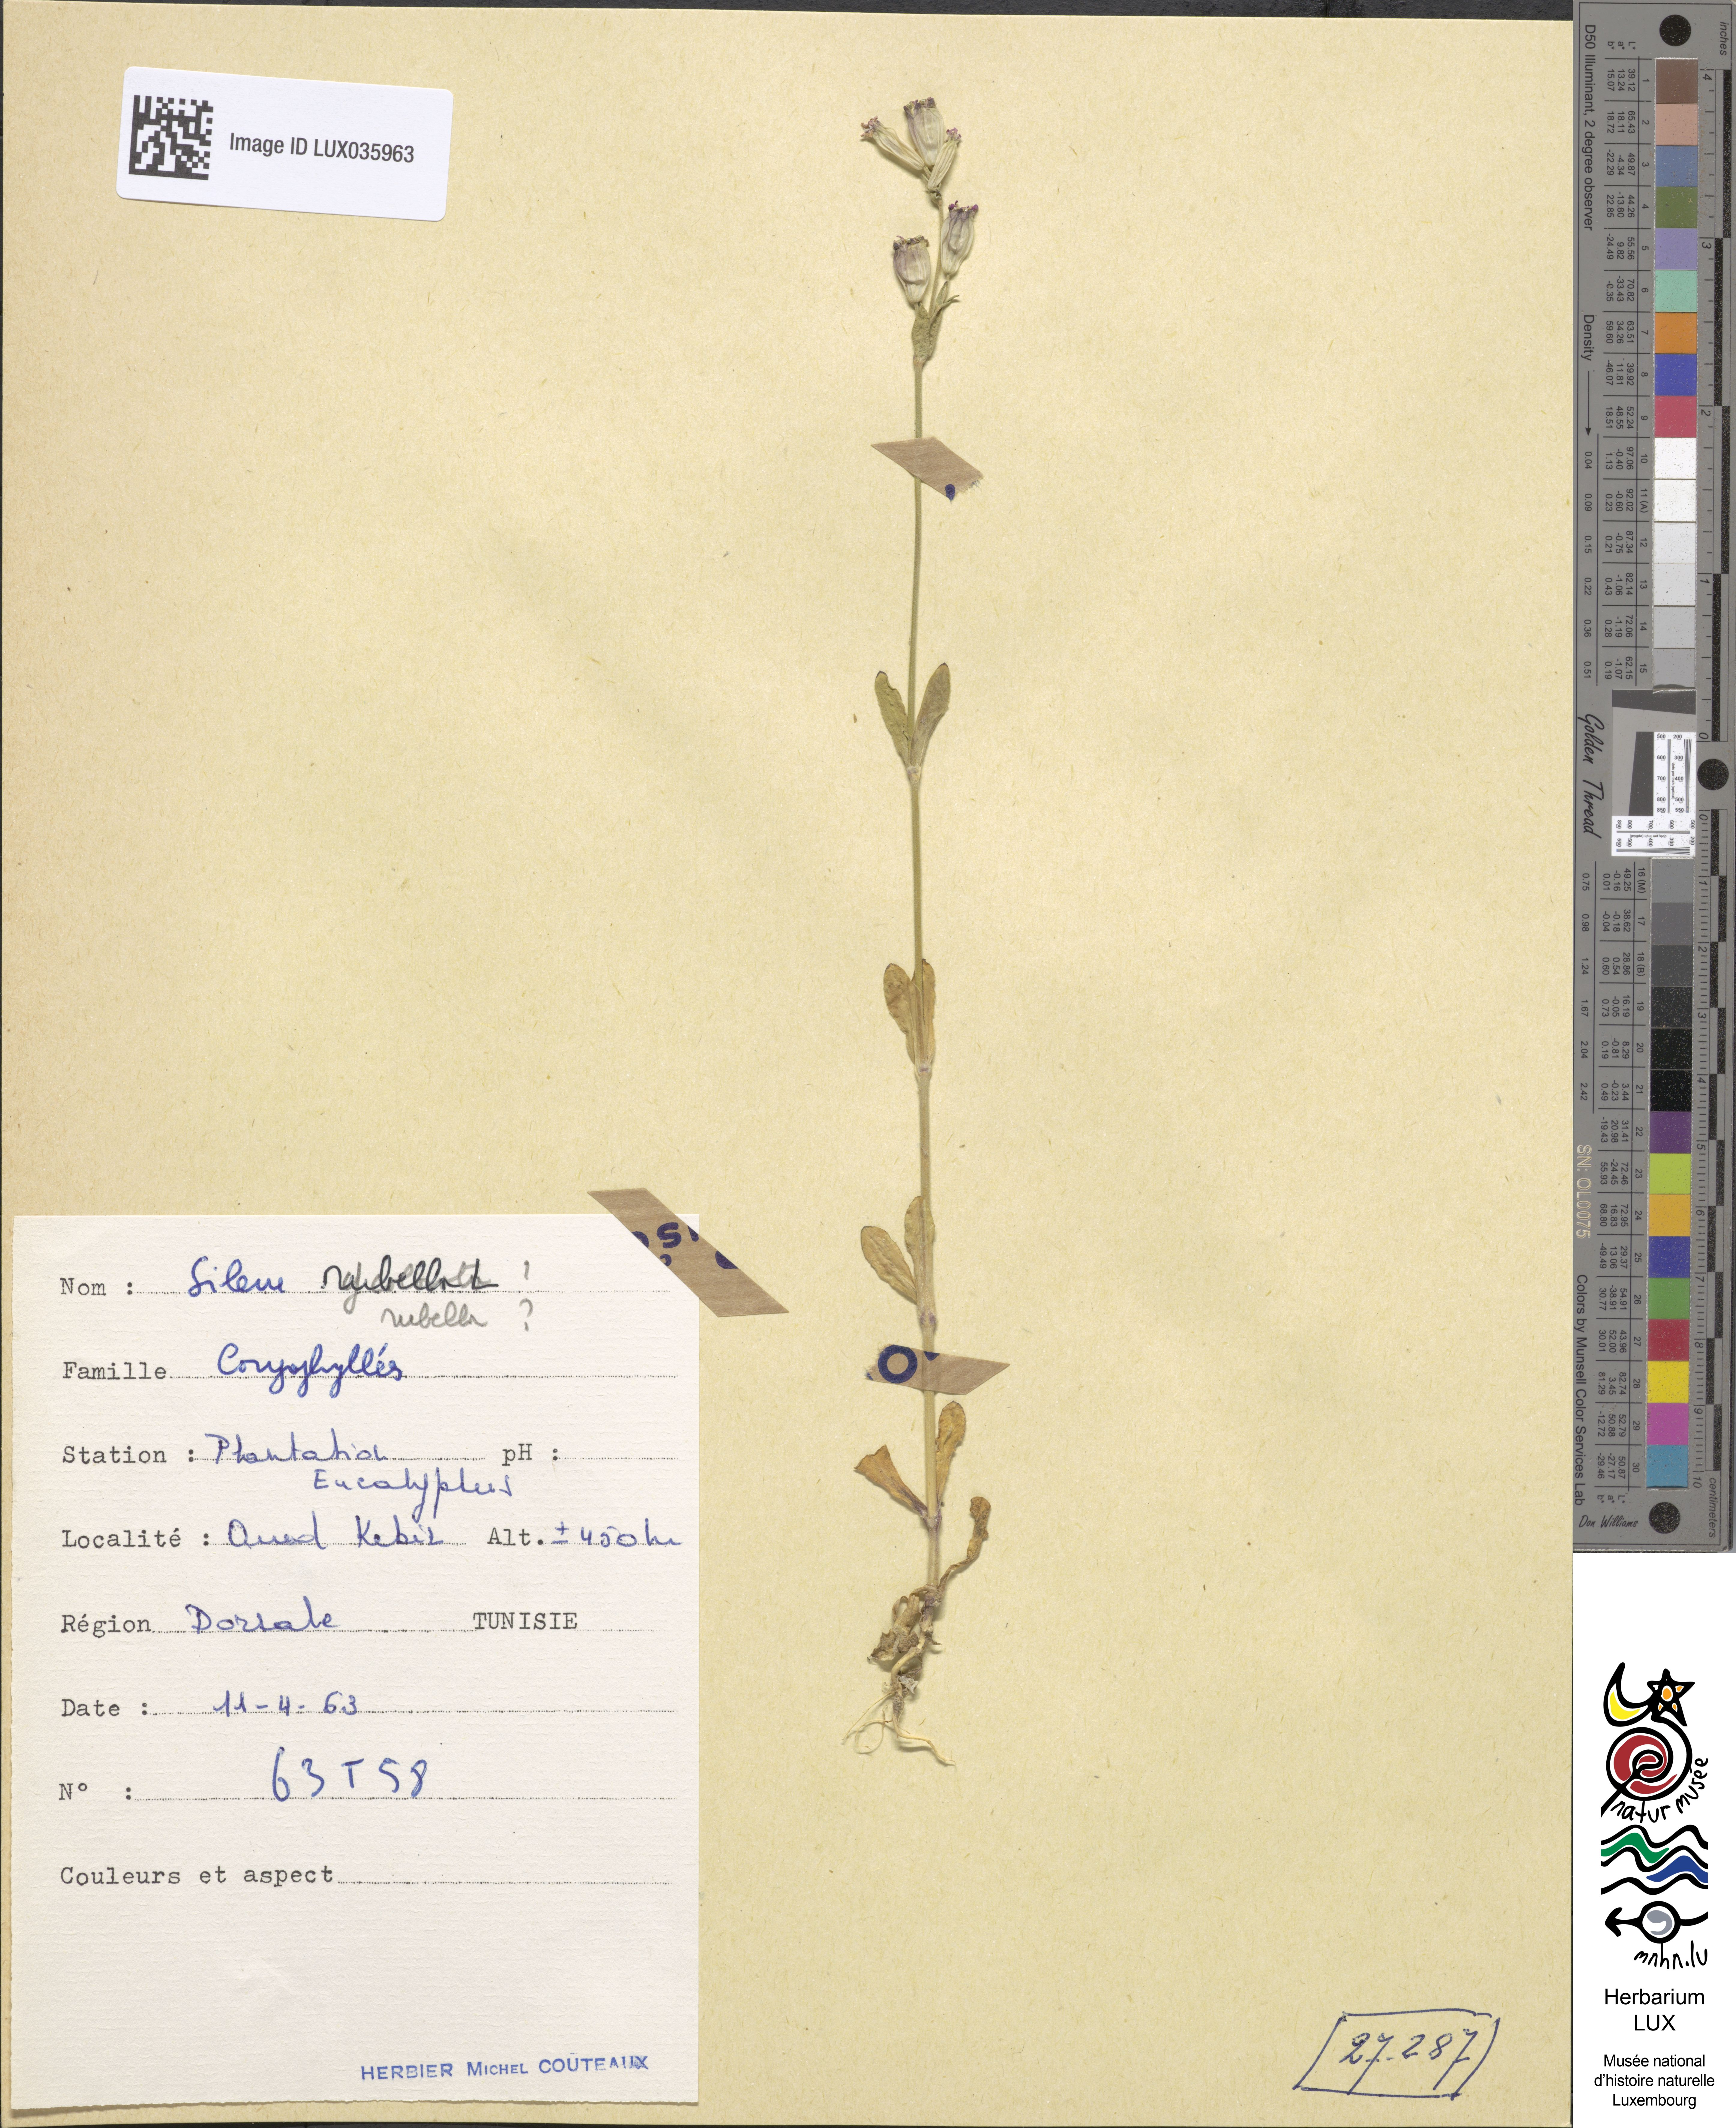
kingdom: Plantae
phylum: Tracheophyta
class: Magnoliopsida
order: Caryophyllales
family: Caryophyllaceae
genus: Silene
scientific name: Silene rubella
